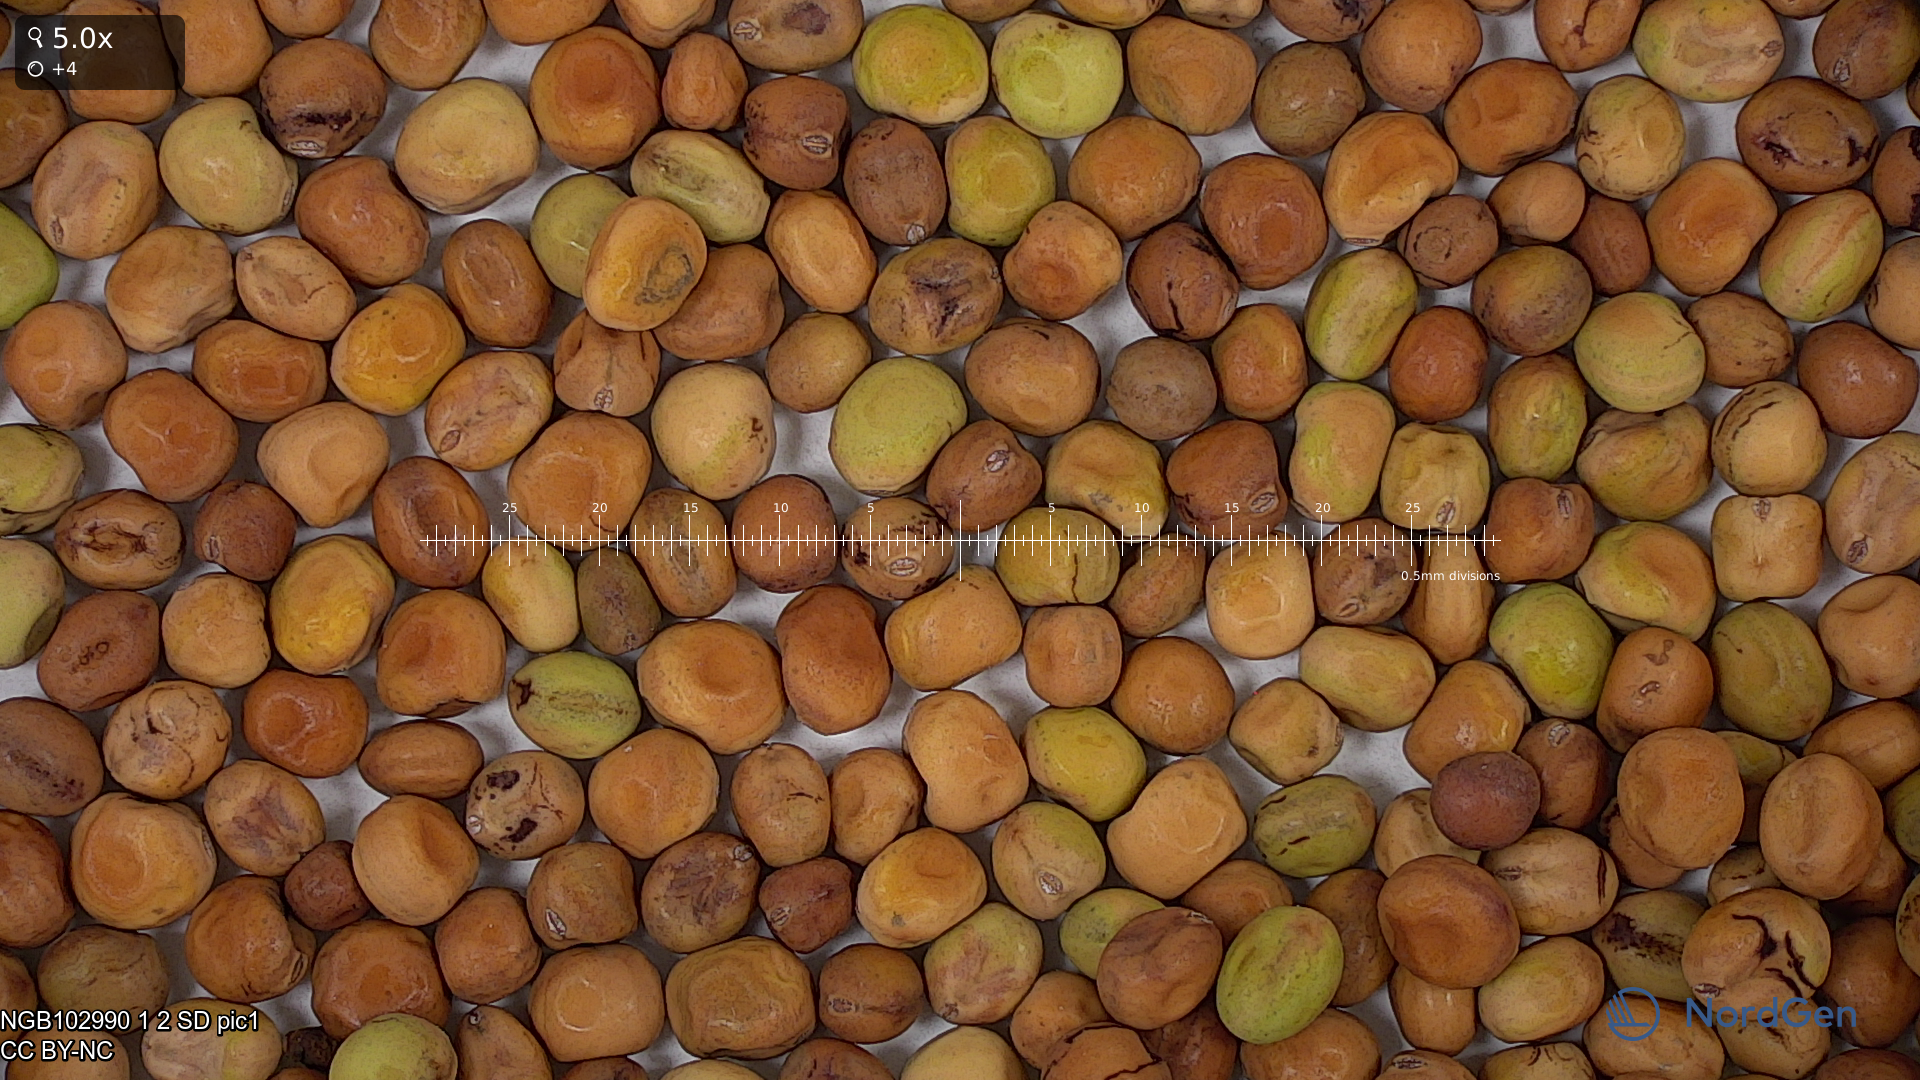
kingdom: Plantae
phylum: Tracheophyta
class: Magnoliopsida
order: Fabales
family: Fabaceae
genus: Lathyrus
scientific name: Lathyrus oleraceus
